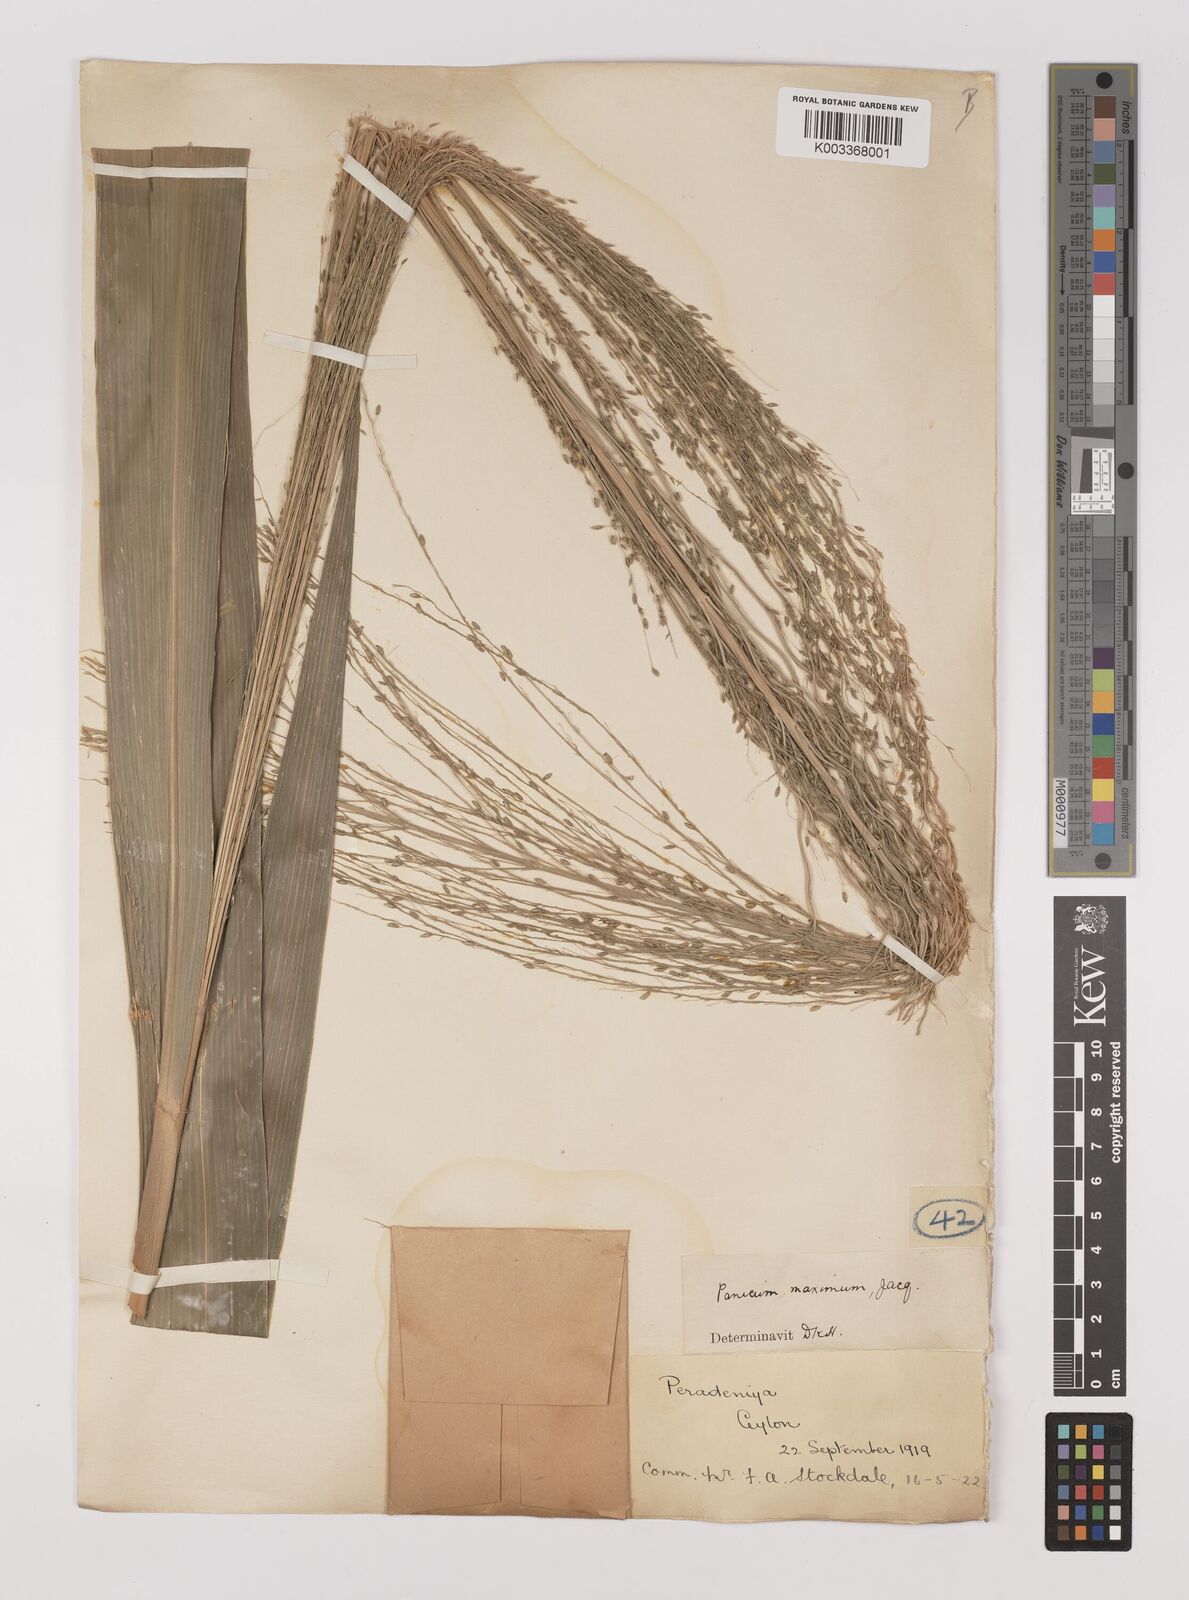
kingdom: Plantae
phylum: Tracheophyta
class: Liliopsida
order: Poales
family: Poaceae
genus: Megathyrsus
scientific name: Megathyrsus maximus
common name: Guineagrass
